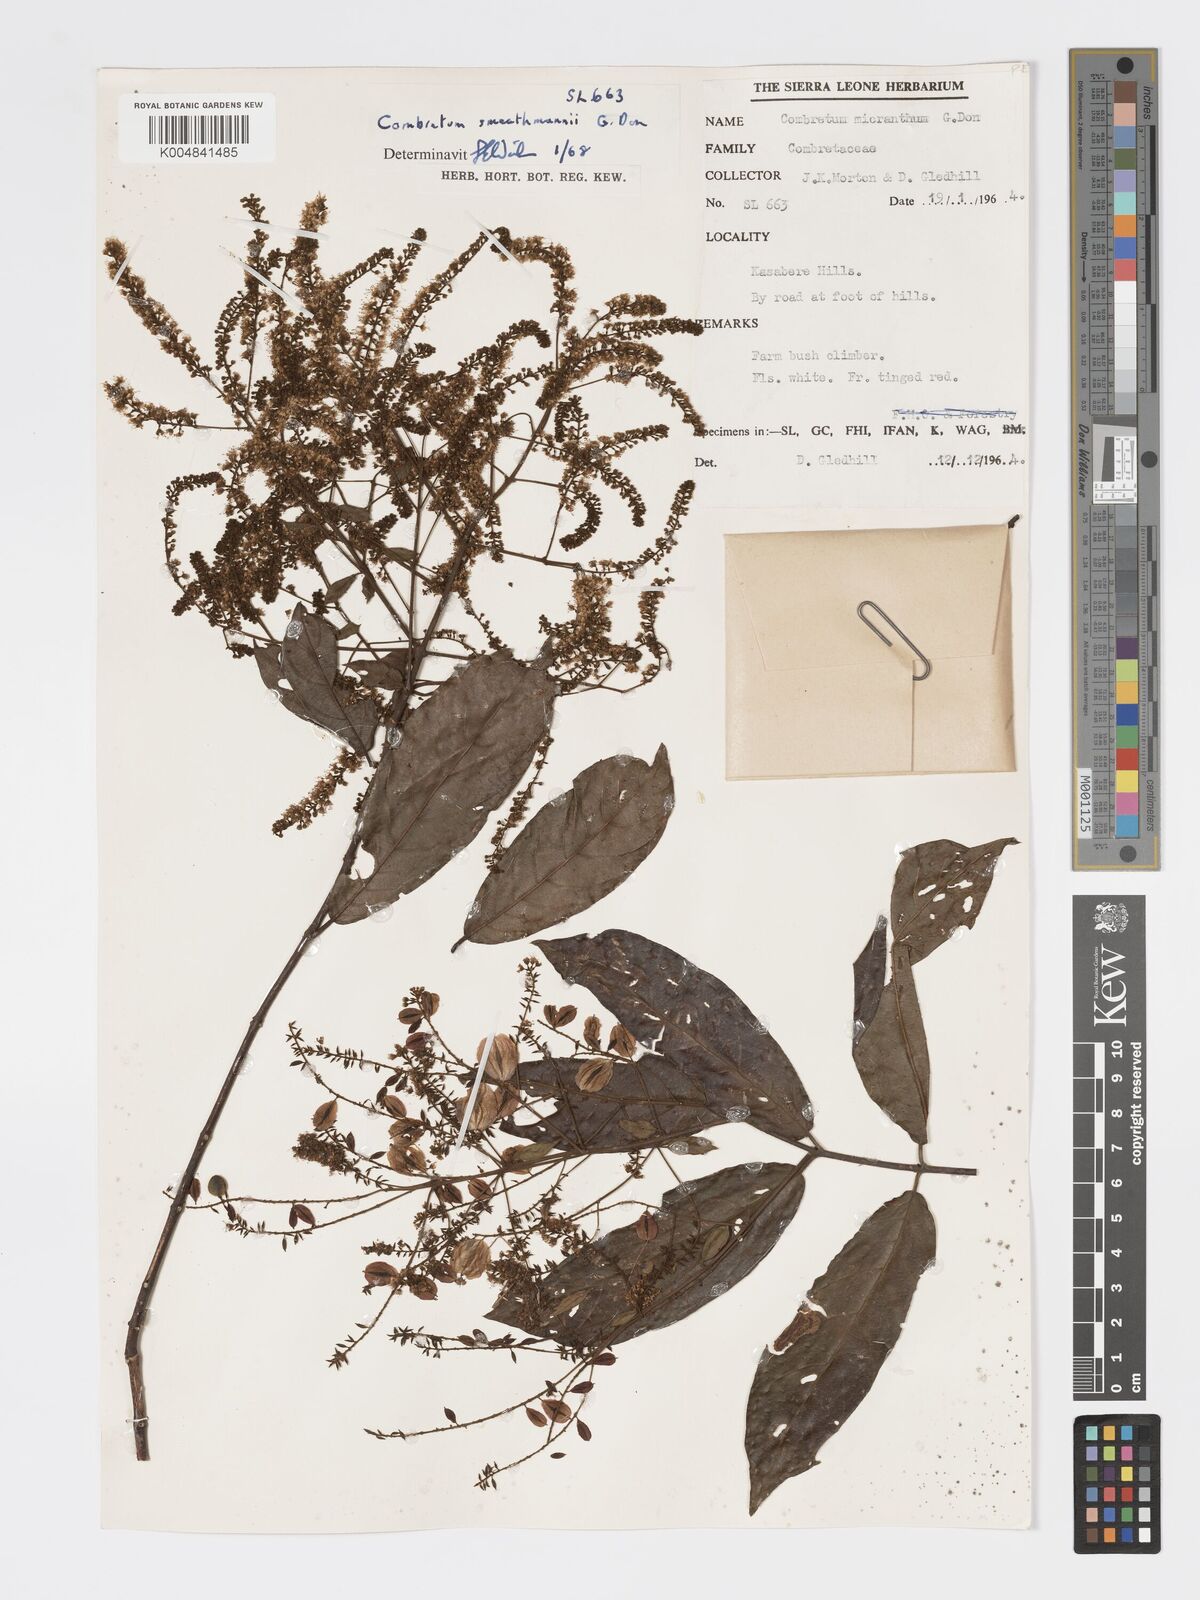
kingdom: Plantae
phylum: Tracheophyta
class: Magnoliopsida
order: Myrtales
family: Combretaceae
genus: Combretum
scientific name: Combretum mucronatum
